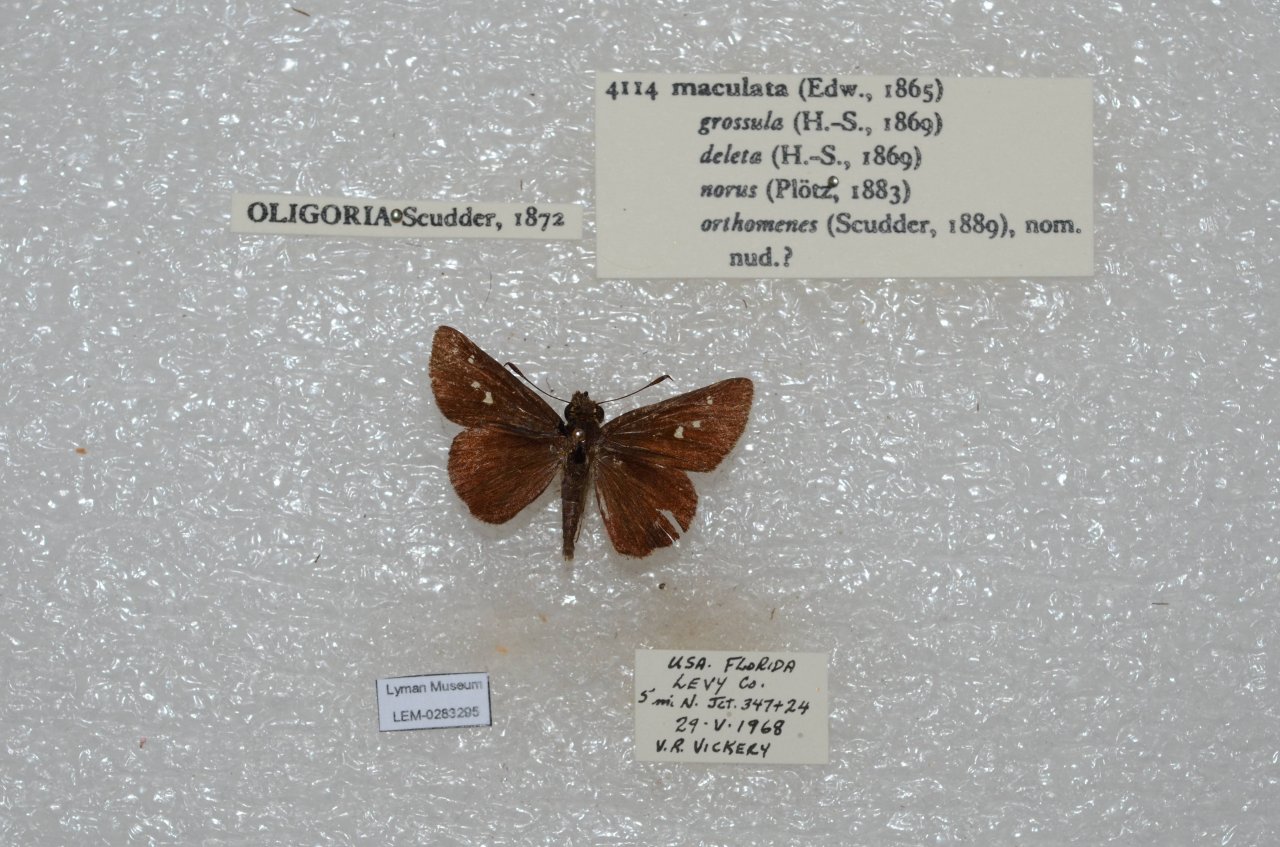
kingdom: Animalia
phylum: Arthropoda
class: Insecta
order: Lepidoptera
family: Hesperiidae
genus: Oligoria
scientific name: Oligoria maculata
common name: Twin-spot Skipper
